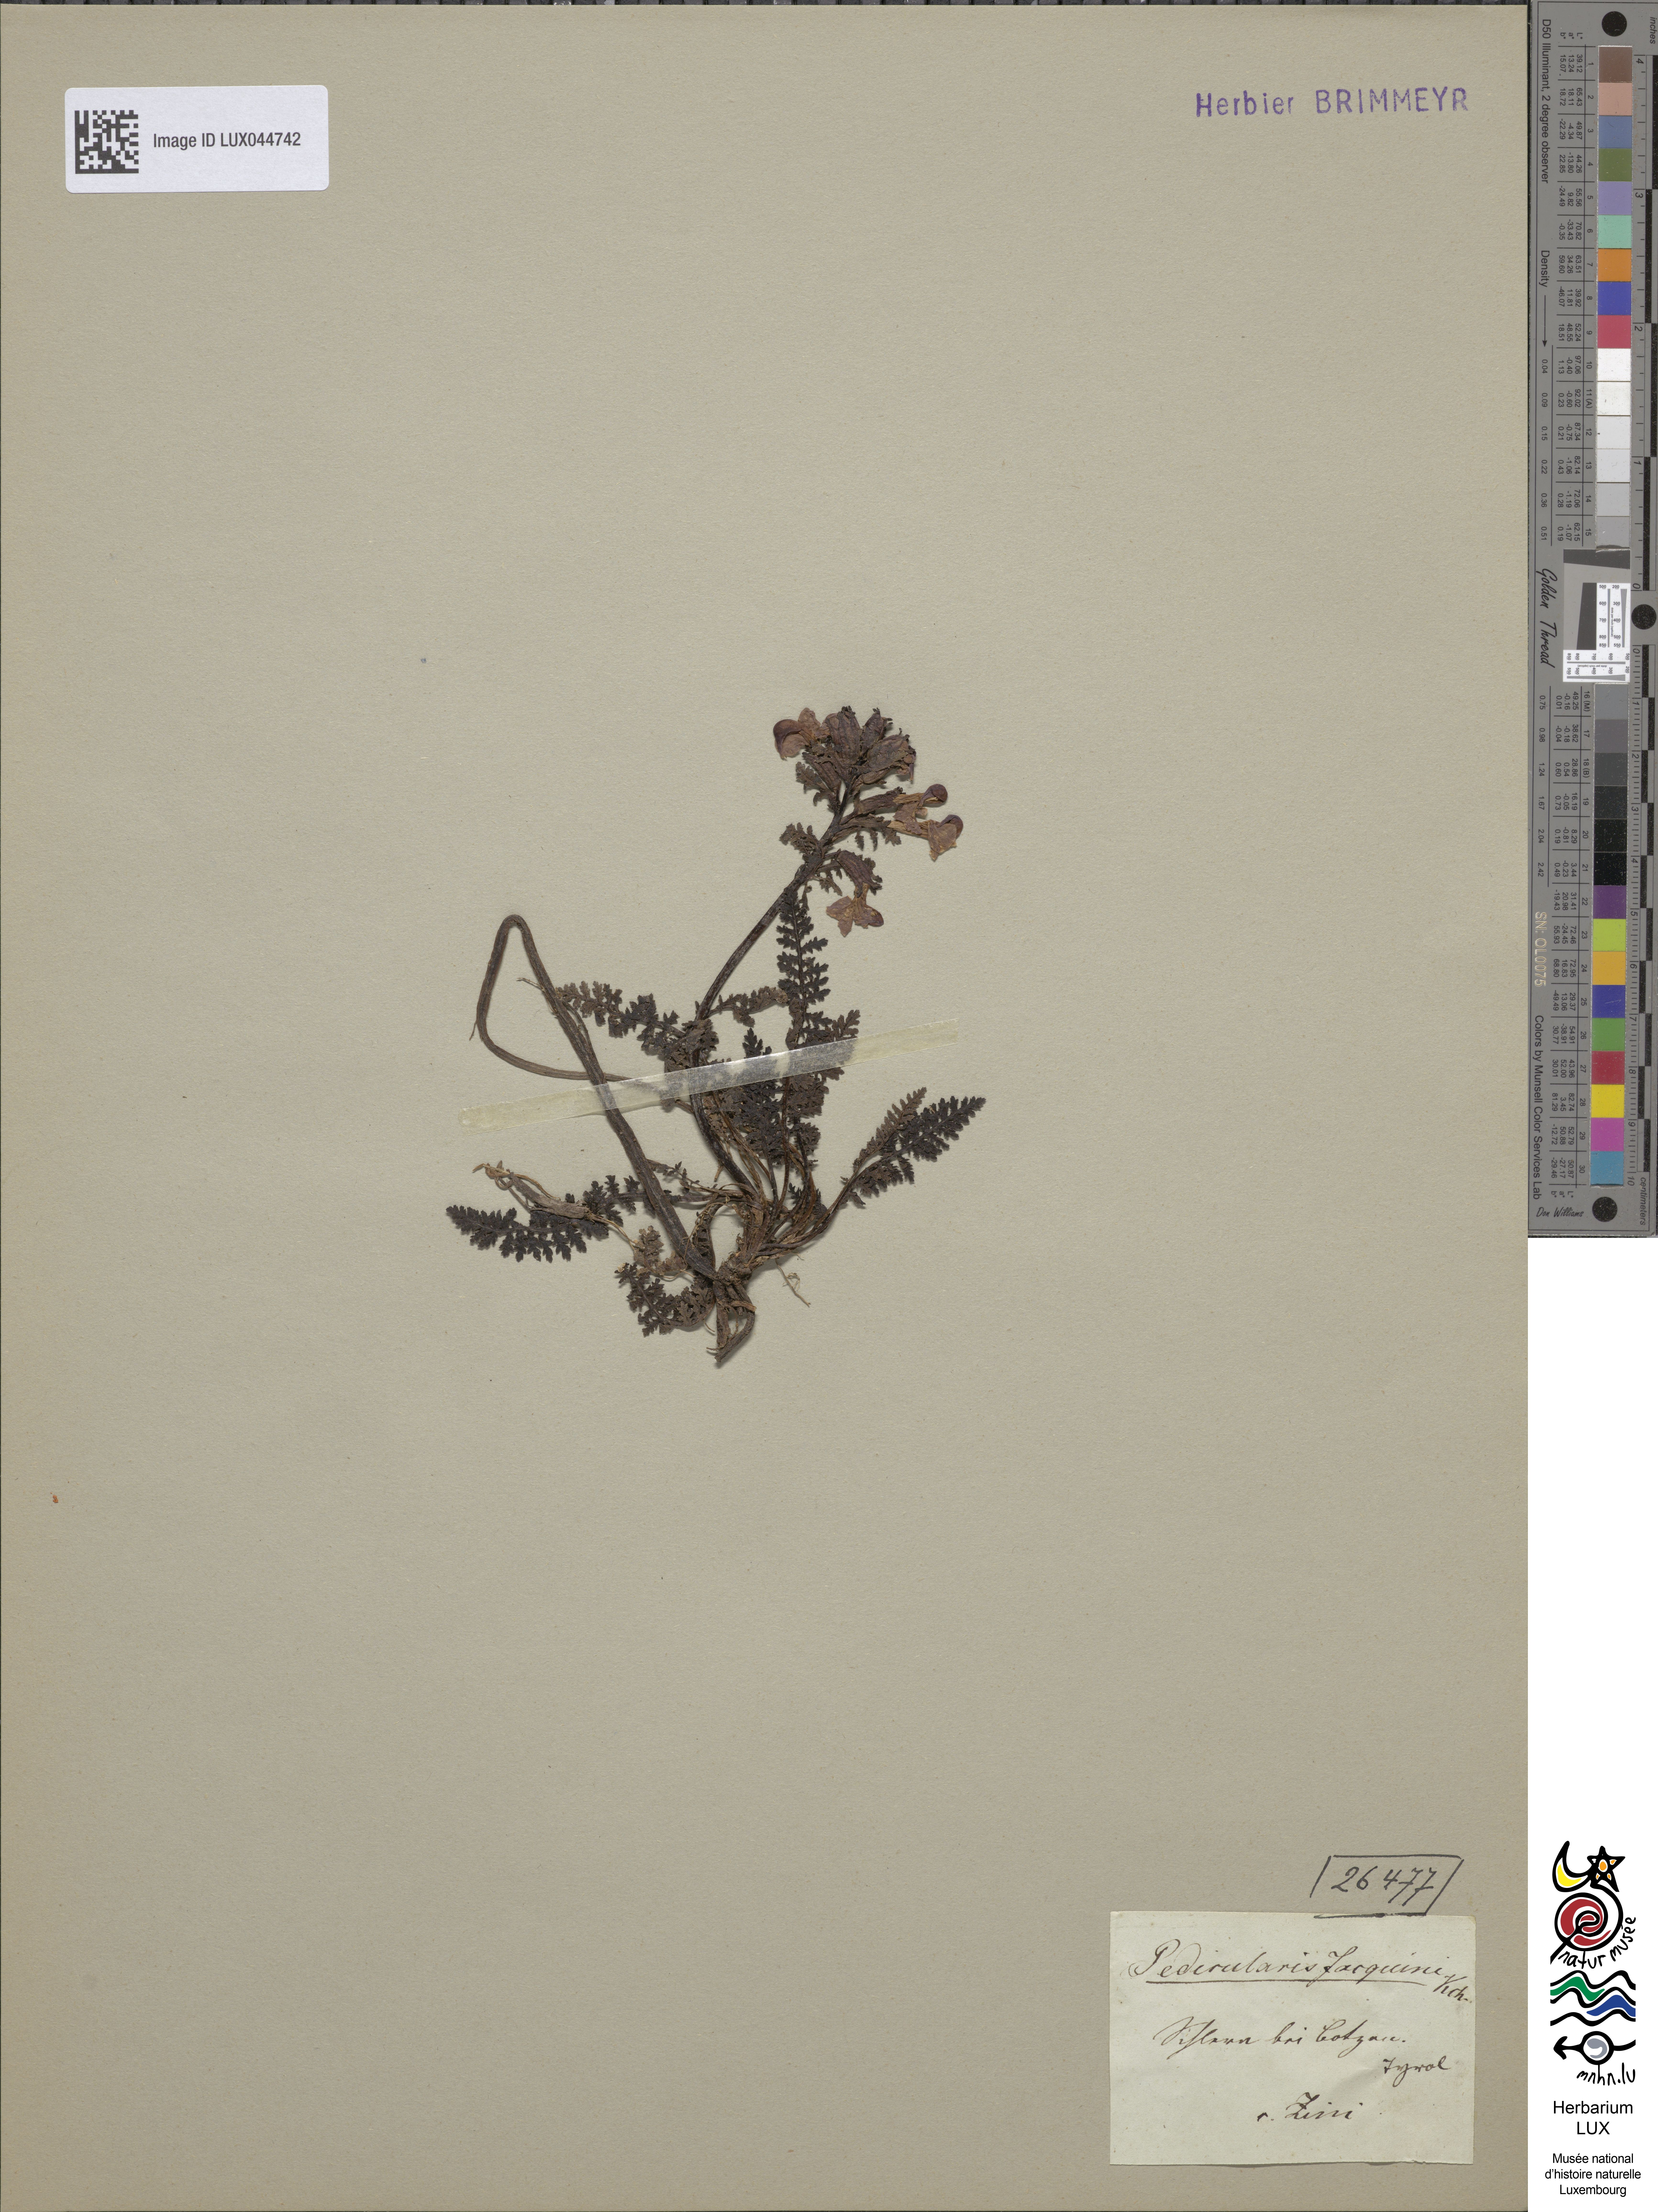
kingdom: Plantae
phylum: Tracheophyta
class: Magnoliopsida
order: Lamiales
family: Orobanchaceae
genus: Pedicularis
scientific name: Pedicularis rostratocapitata
